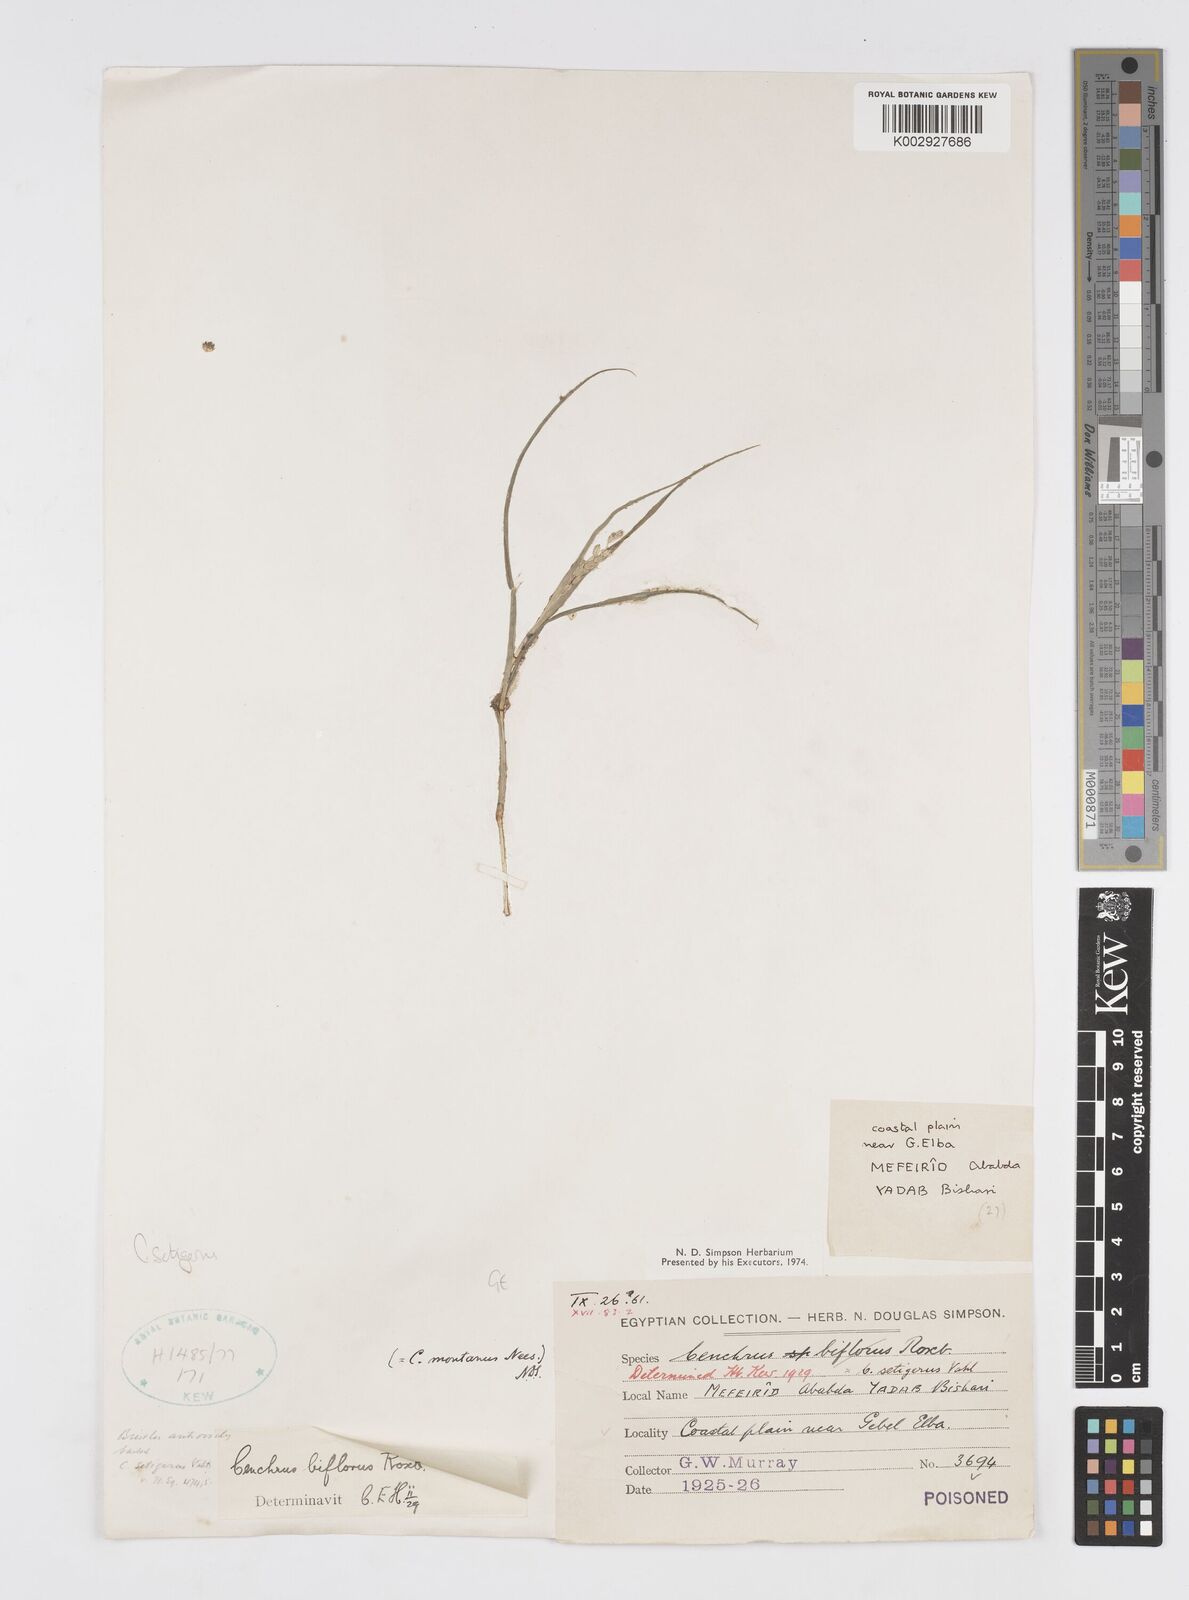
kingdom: Plantae
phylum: Tracheophyta
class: Liliopsida
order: Poales
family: Poaceae
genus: Cenchrus
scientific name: Cenchrus setigerus
